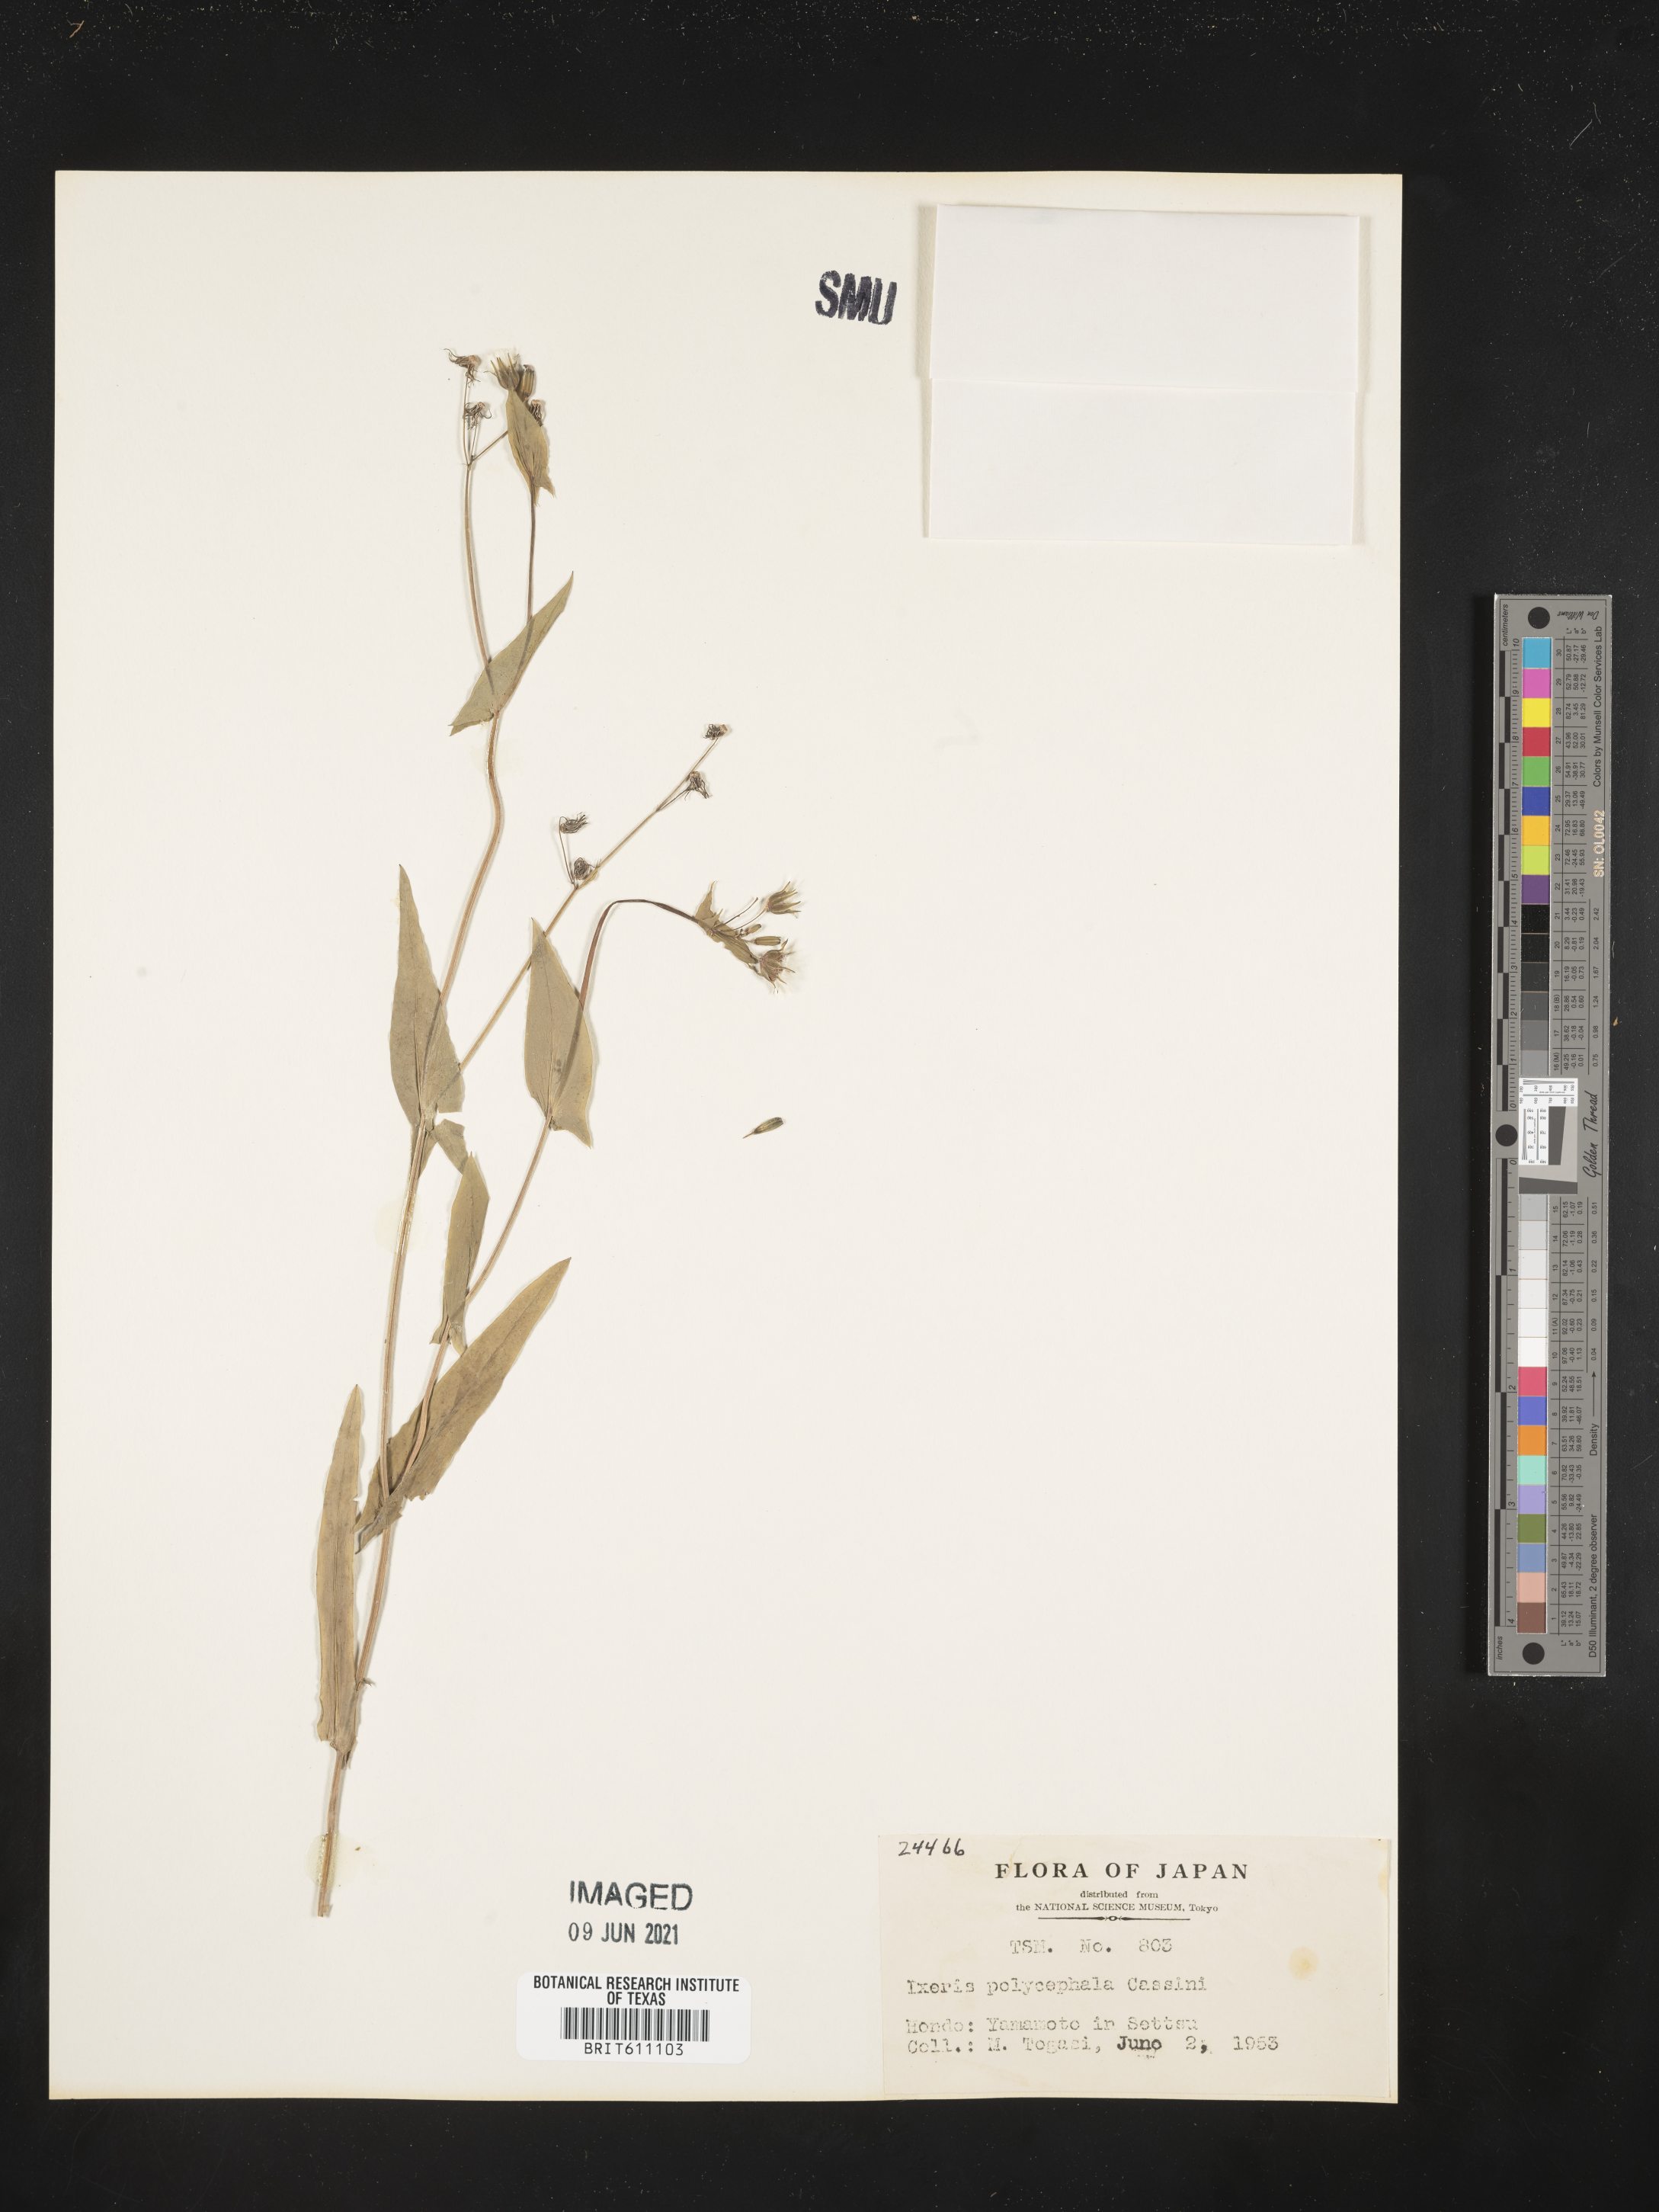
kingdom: Plantae
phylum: Tracheophyta
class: Magnoliopsida
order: Asterales
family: Asteraceae
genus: Ixeris
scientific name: Ixeris polycephala
